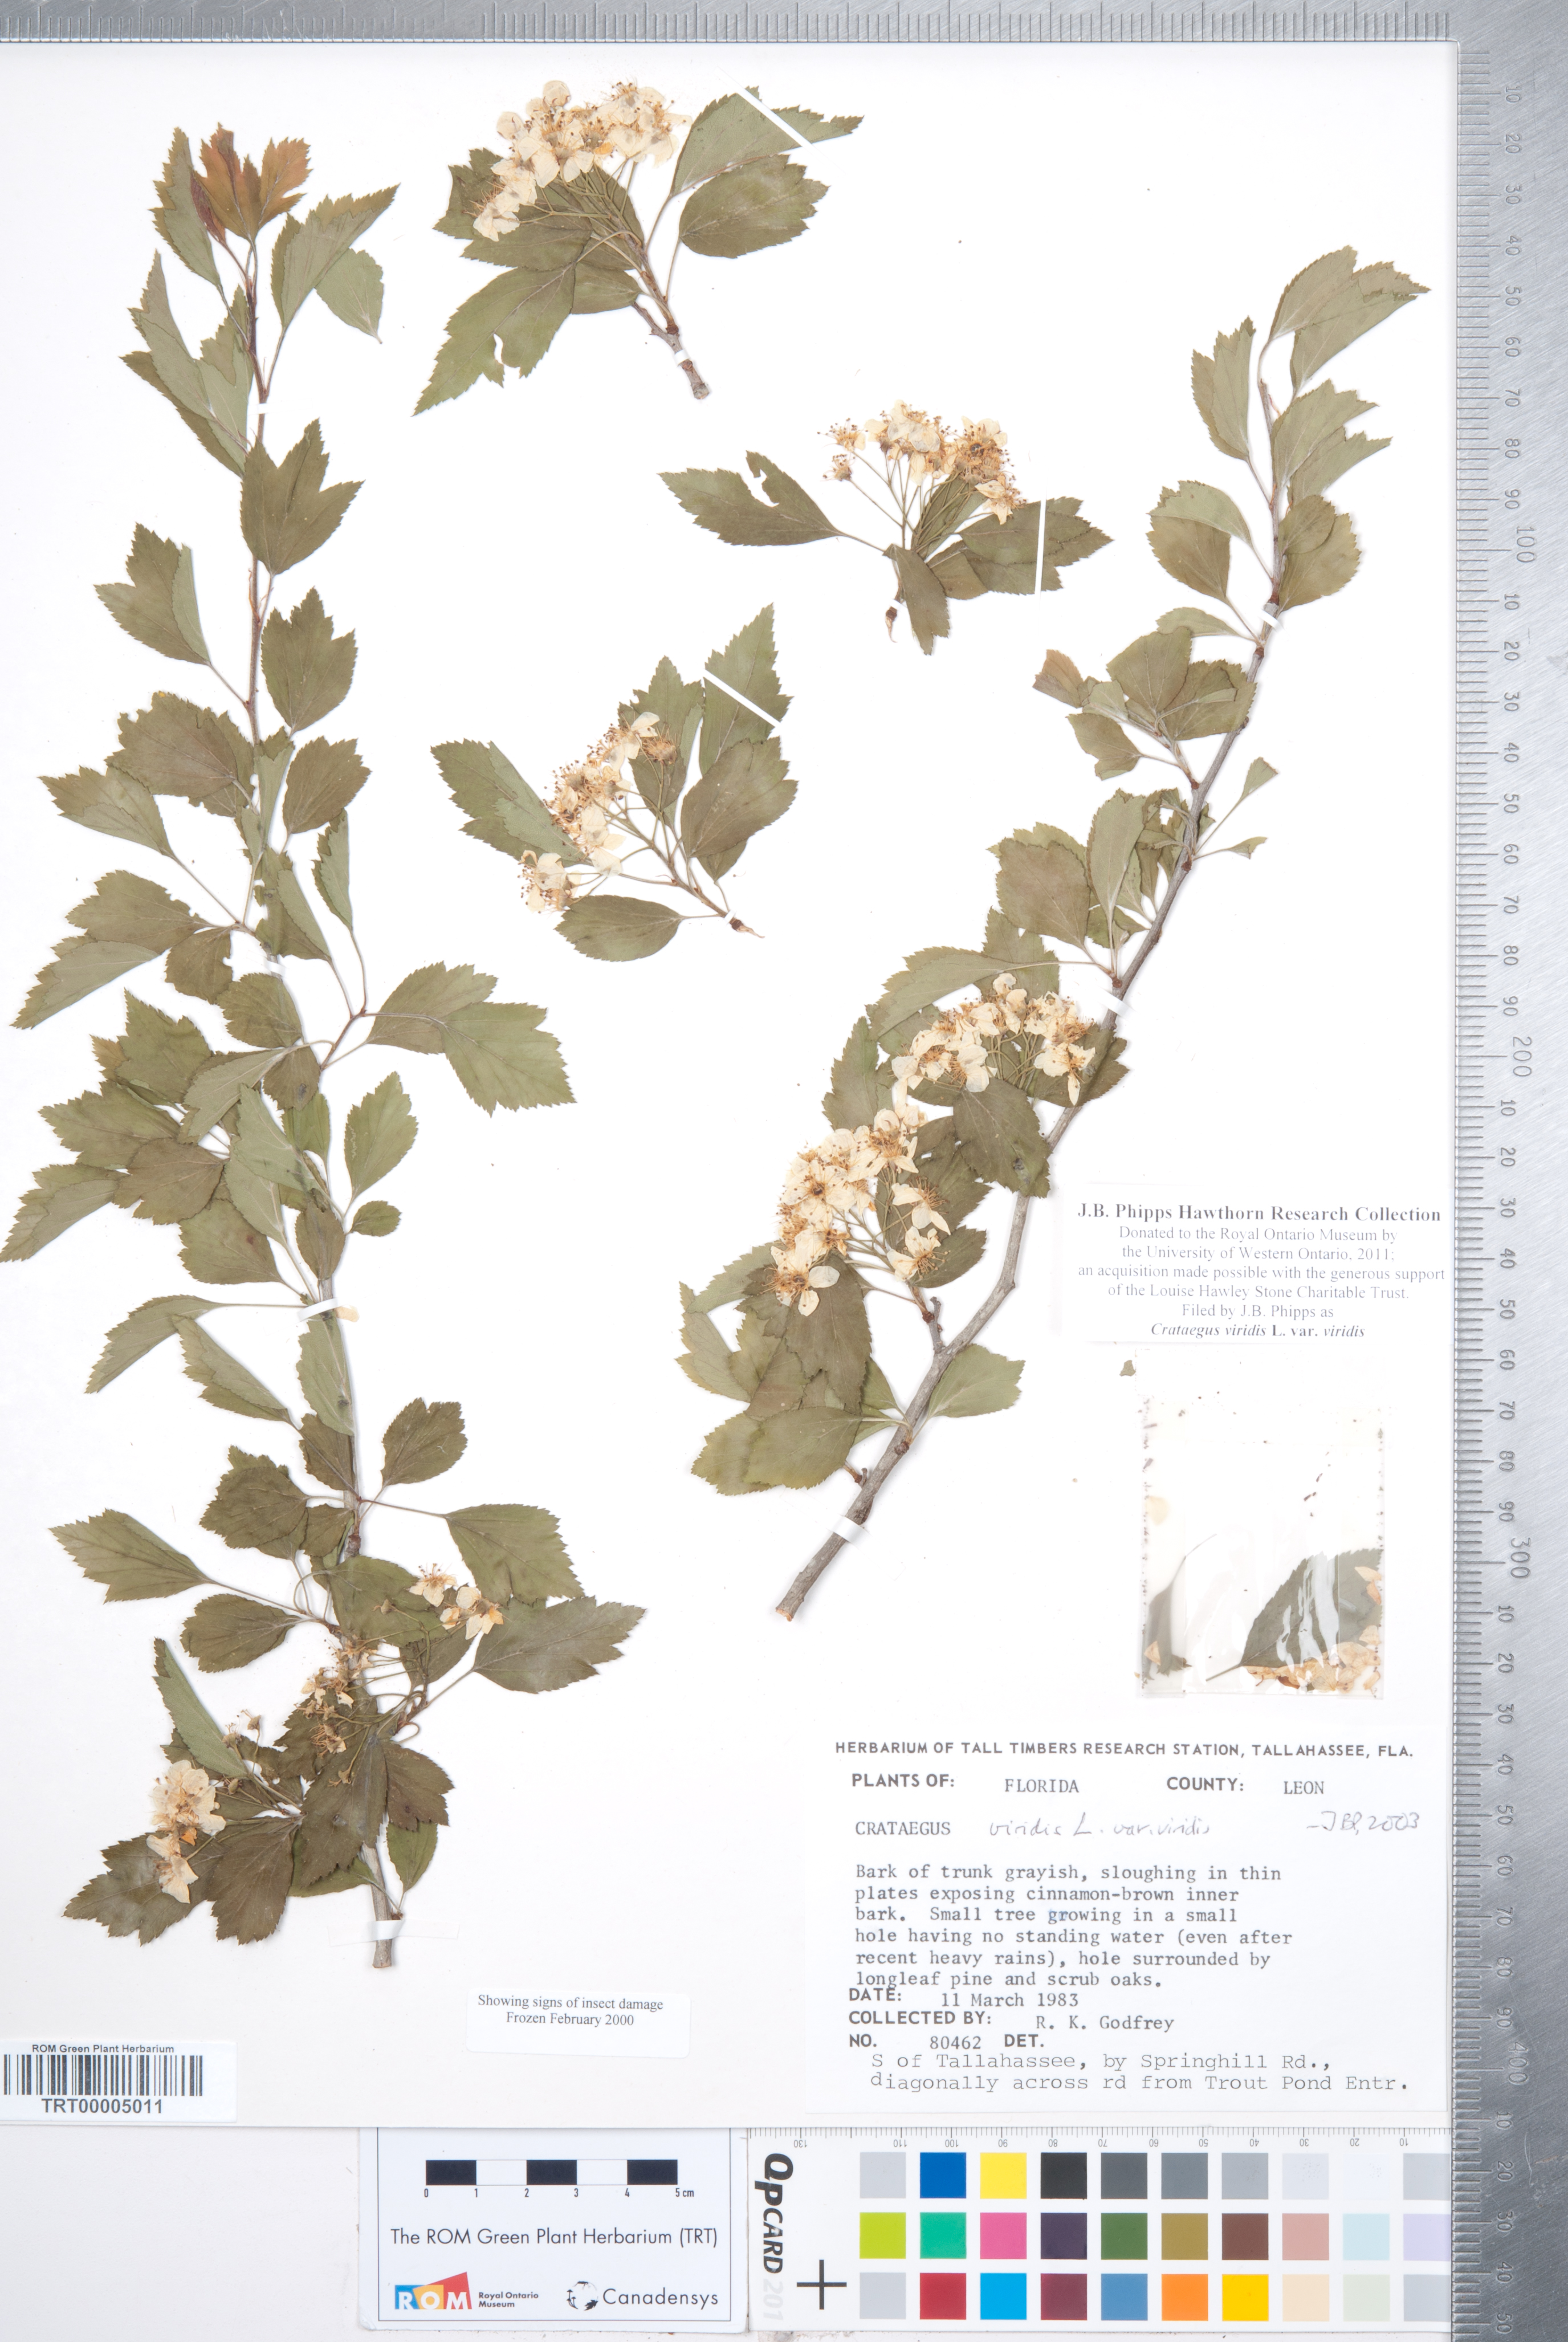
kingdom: Plantae
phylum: Tracheophyta
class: Magnoliopsida
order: Rosales
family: Rosaceae
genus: Crataegus
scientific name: Crataegus viridis
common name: Southernthorn
